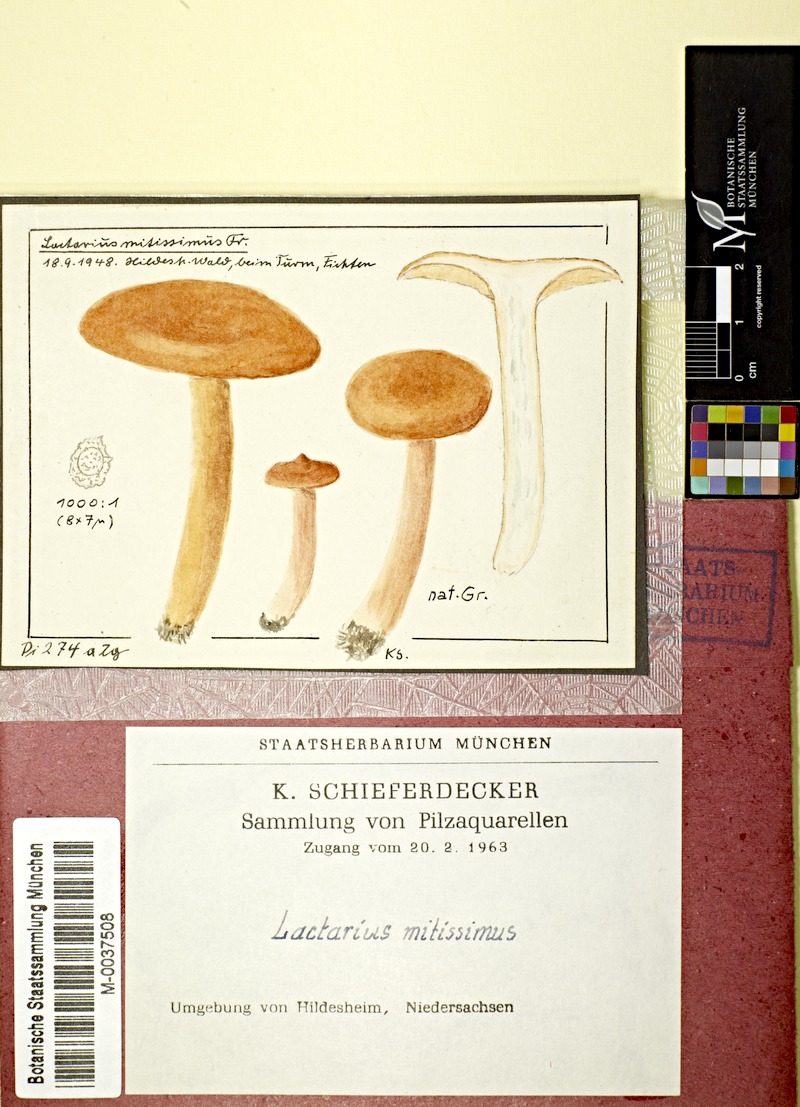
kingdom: Fungi
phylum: Basidiomycota
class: Agaricomycetes
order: Russulales
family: Russulaceae
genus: Lactarius
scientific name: Lactarius aurantiacus
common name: Orange milkcap
